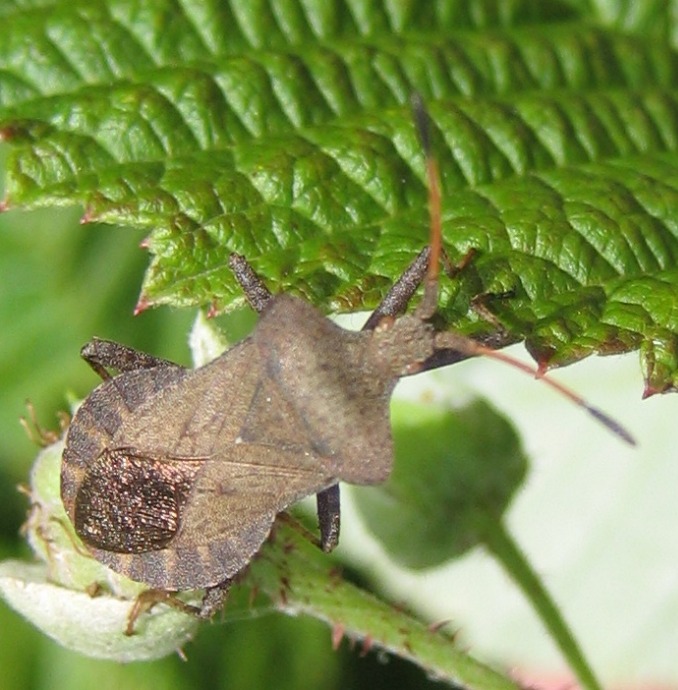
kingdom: Animalia
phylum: Arthropoda
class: Insecta
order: Hemiptera
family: Coreidae
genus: Coreus
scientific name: Coreus marginatus
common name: Skræppetæge
